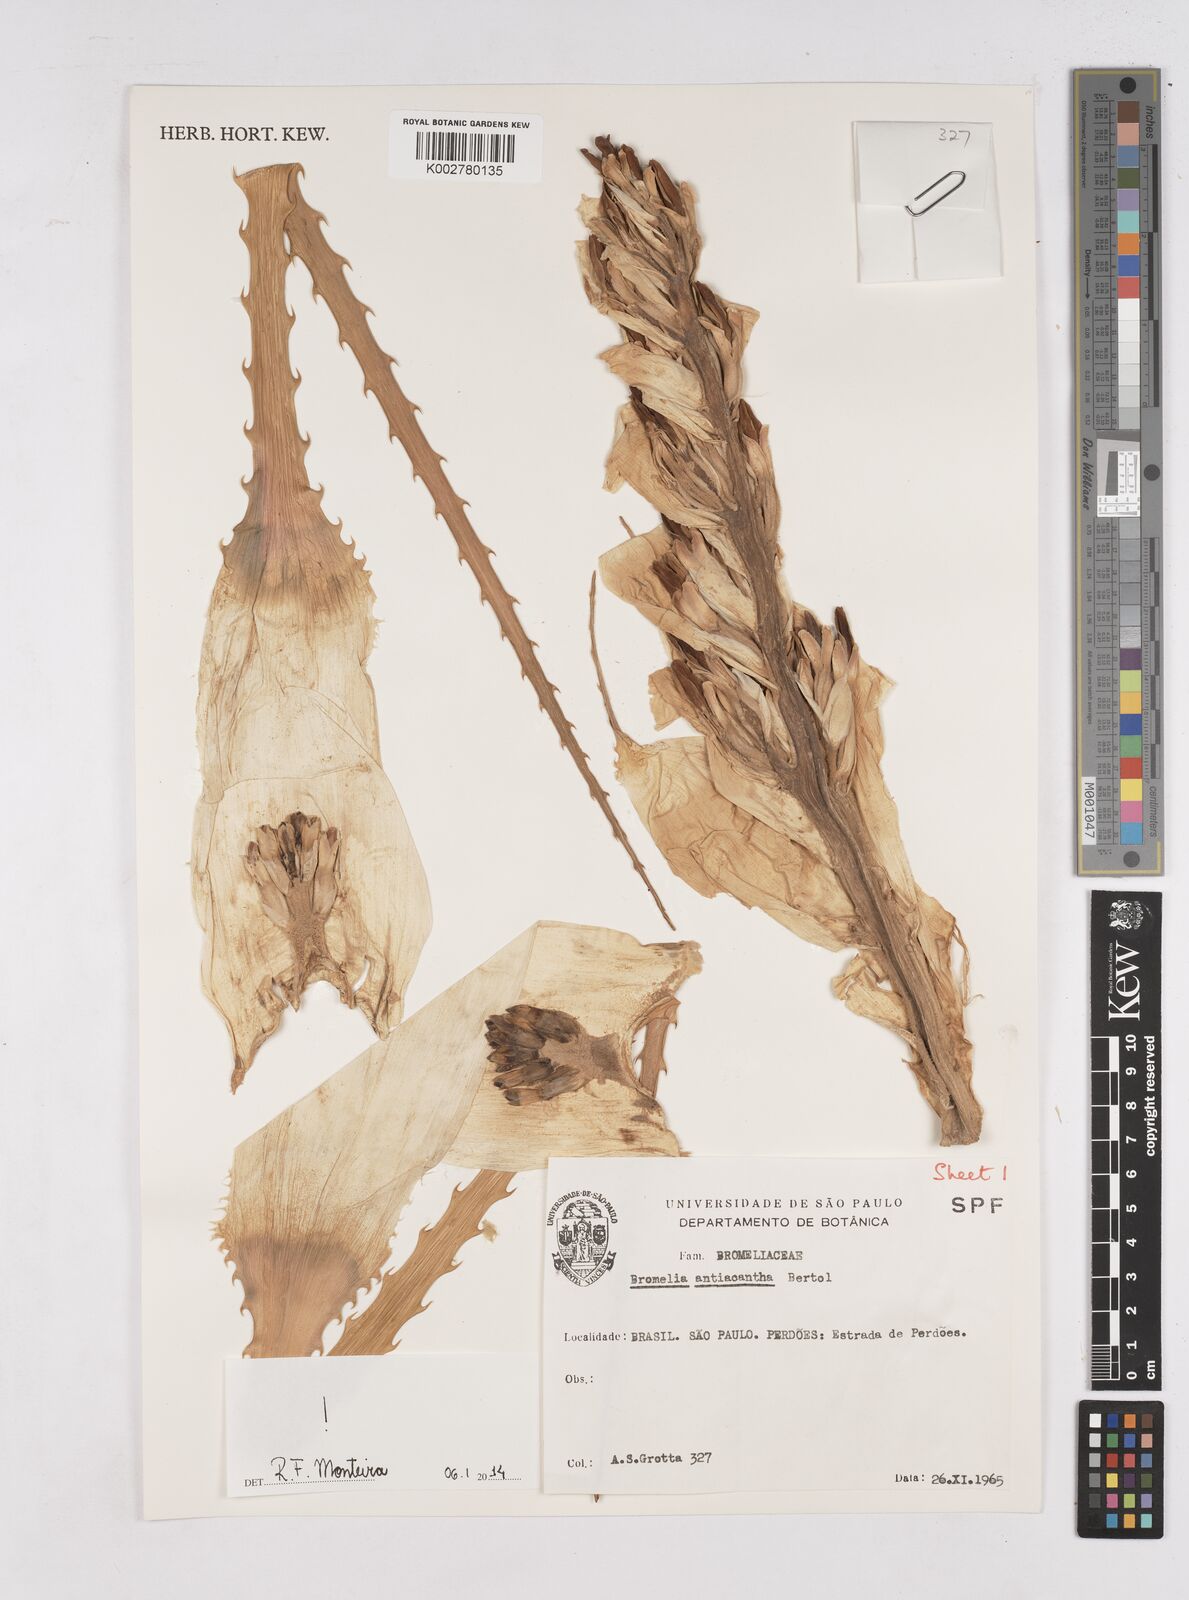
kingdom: Plantae
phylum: Tracheophyta
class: Liliopsida
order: Poales
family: Bromeliaceae
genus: Bromelia
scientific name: Bromelia antiacantha
